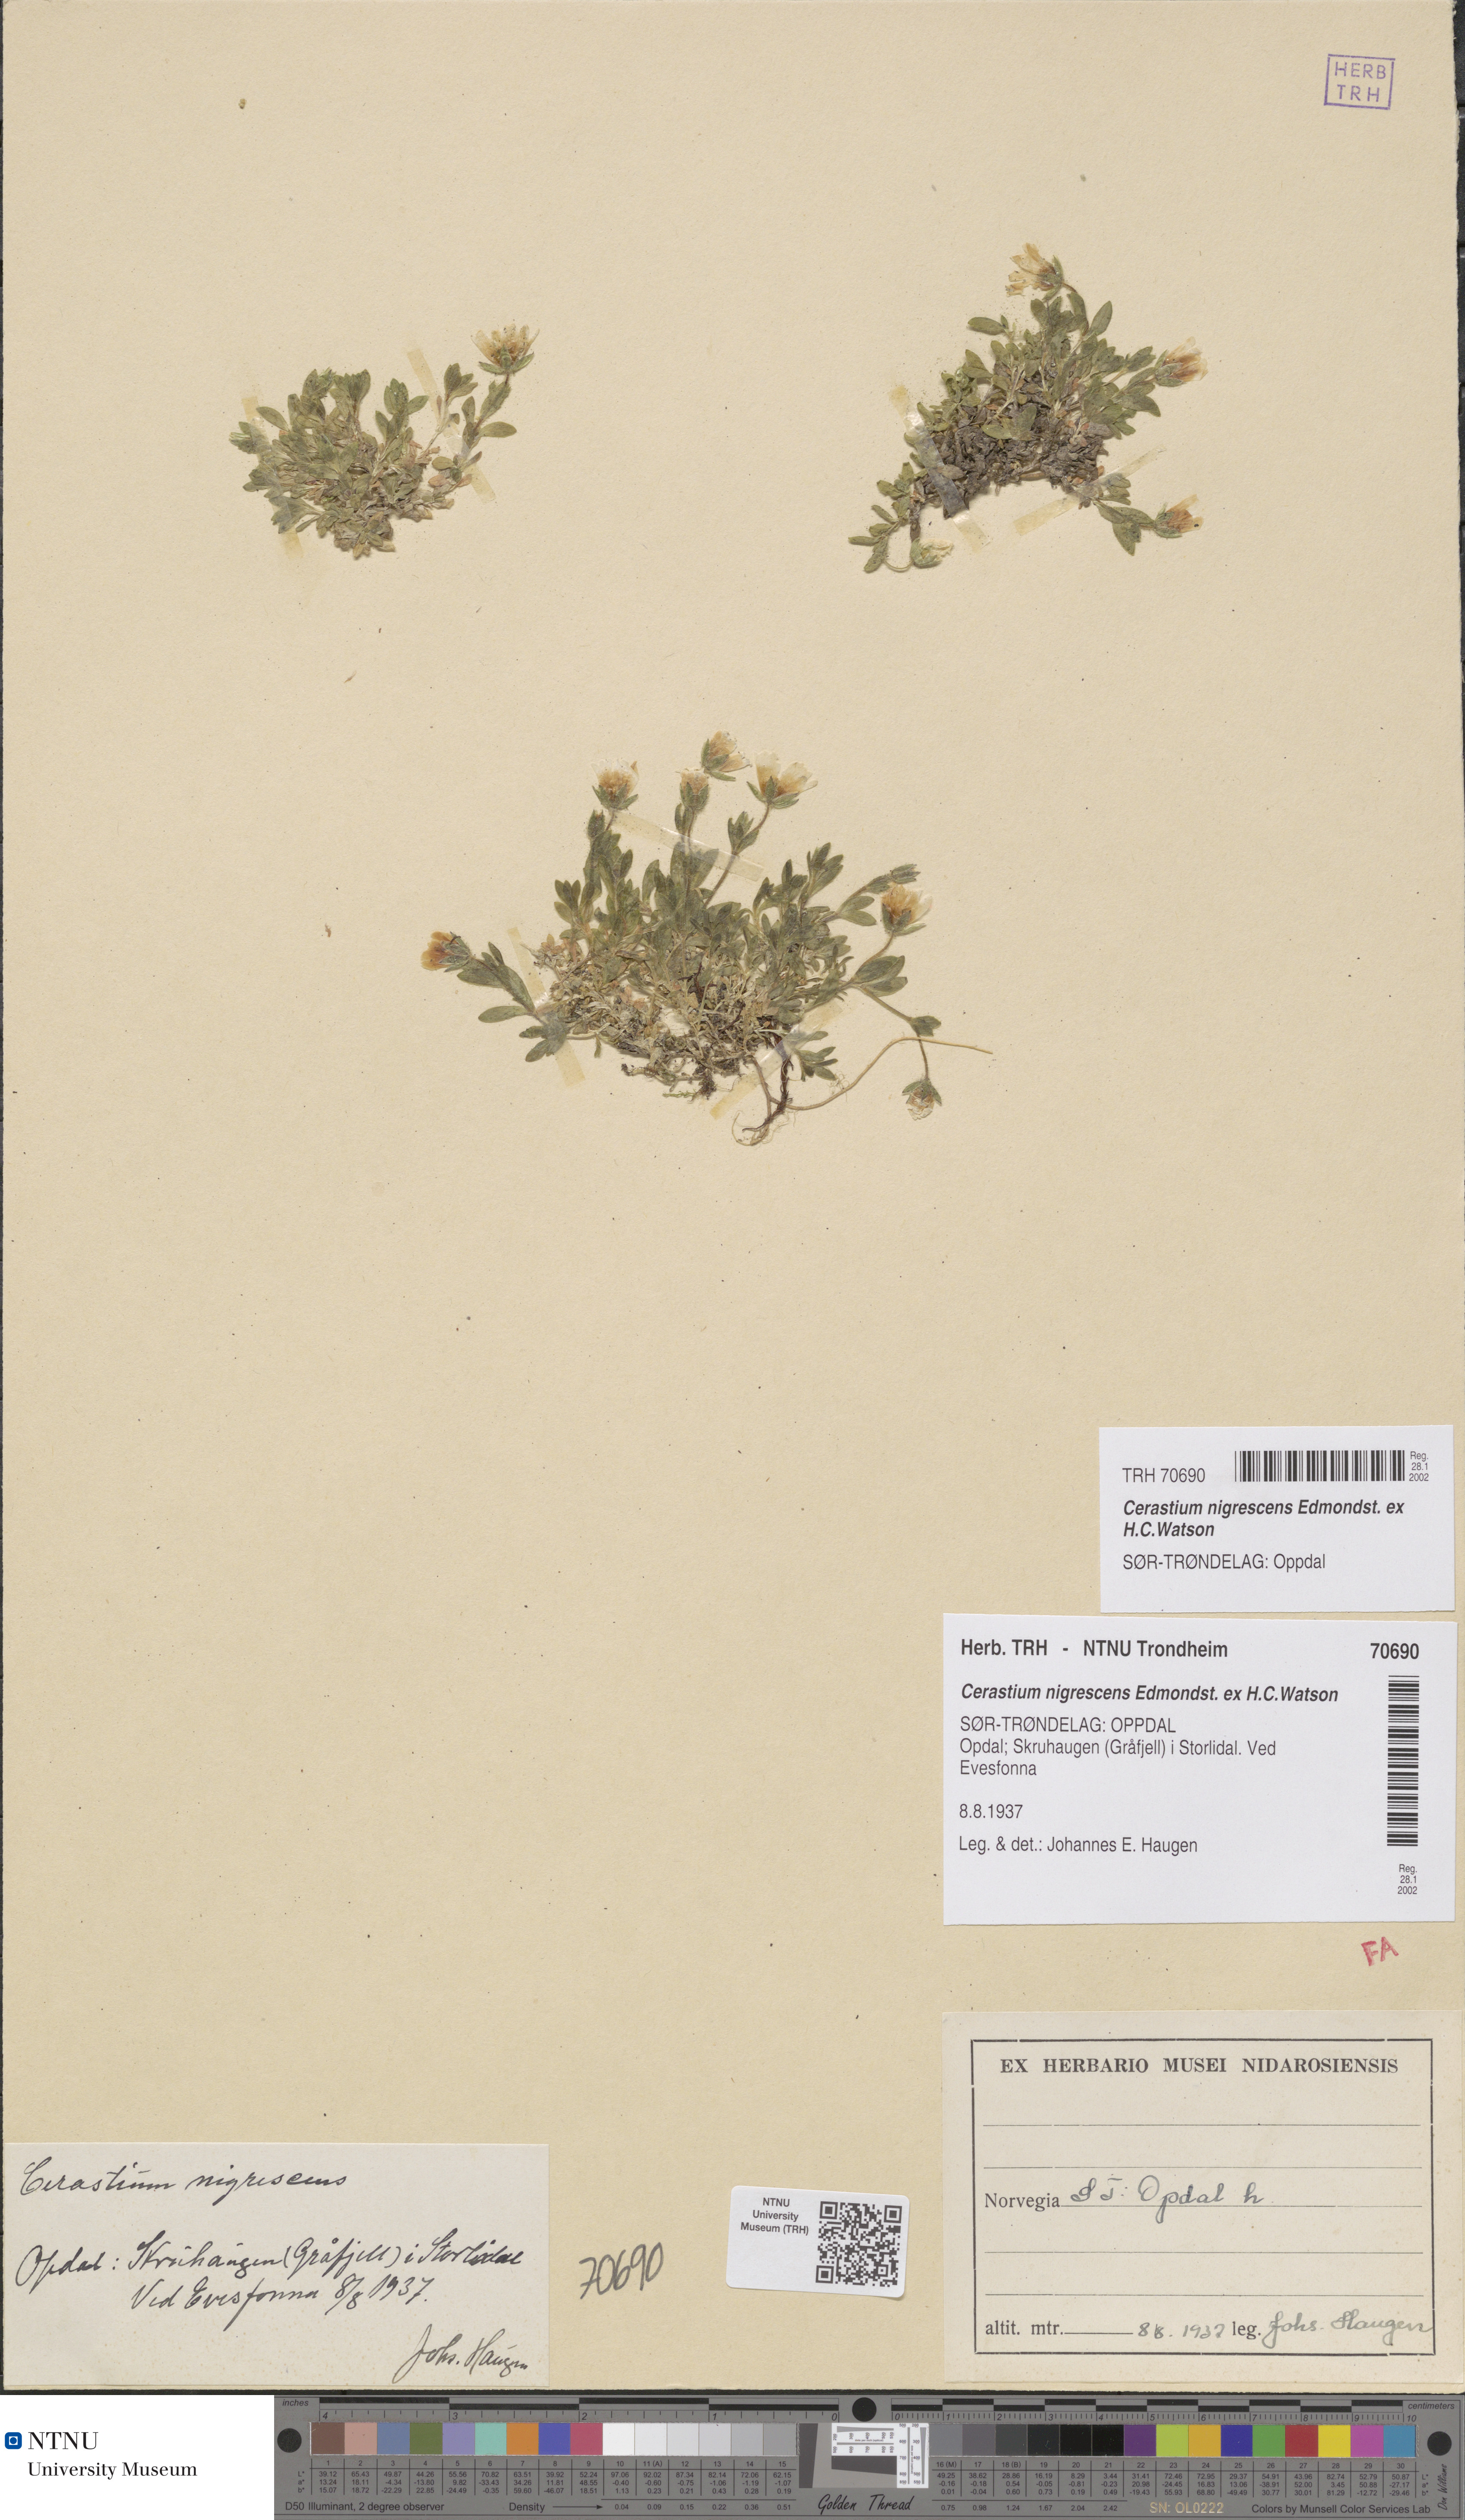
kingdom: Plantae
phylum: Tracheophyta
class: Magnoliopsida
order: Caryophyllales
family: Caryophyllaceae
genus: Cerastium
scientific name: Cerastium nigrescens
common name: Shetland mouse-ear
